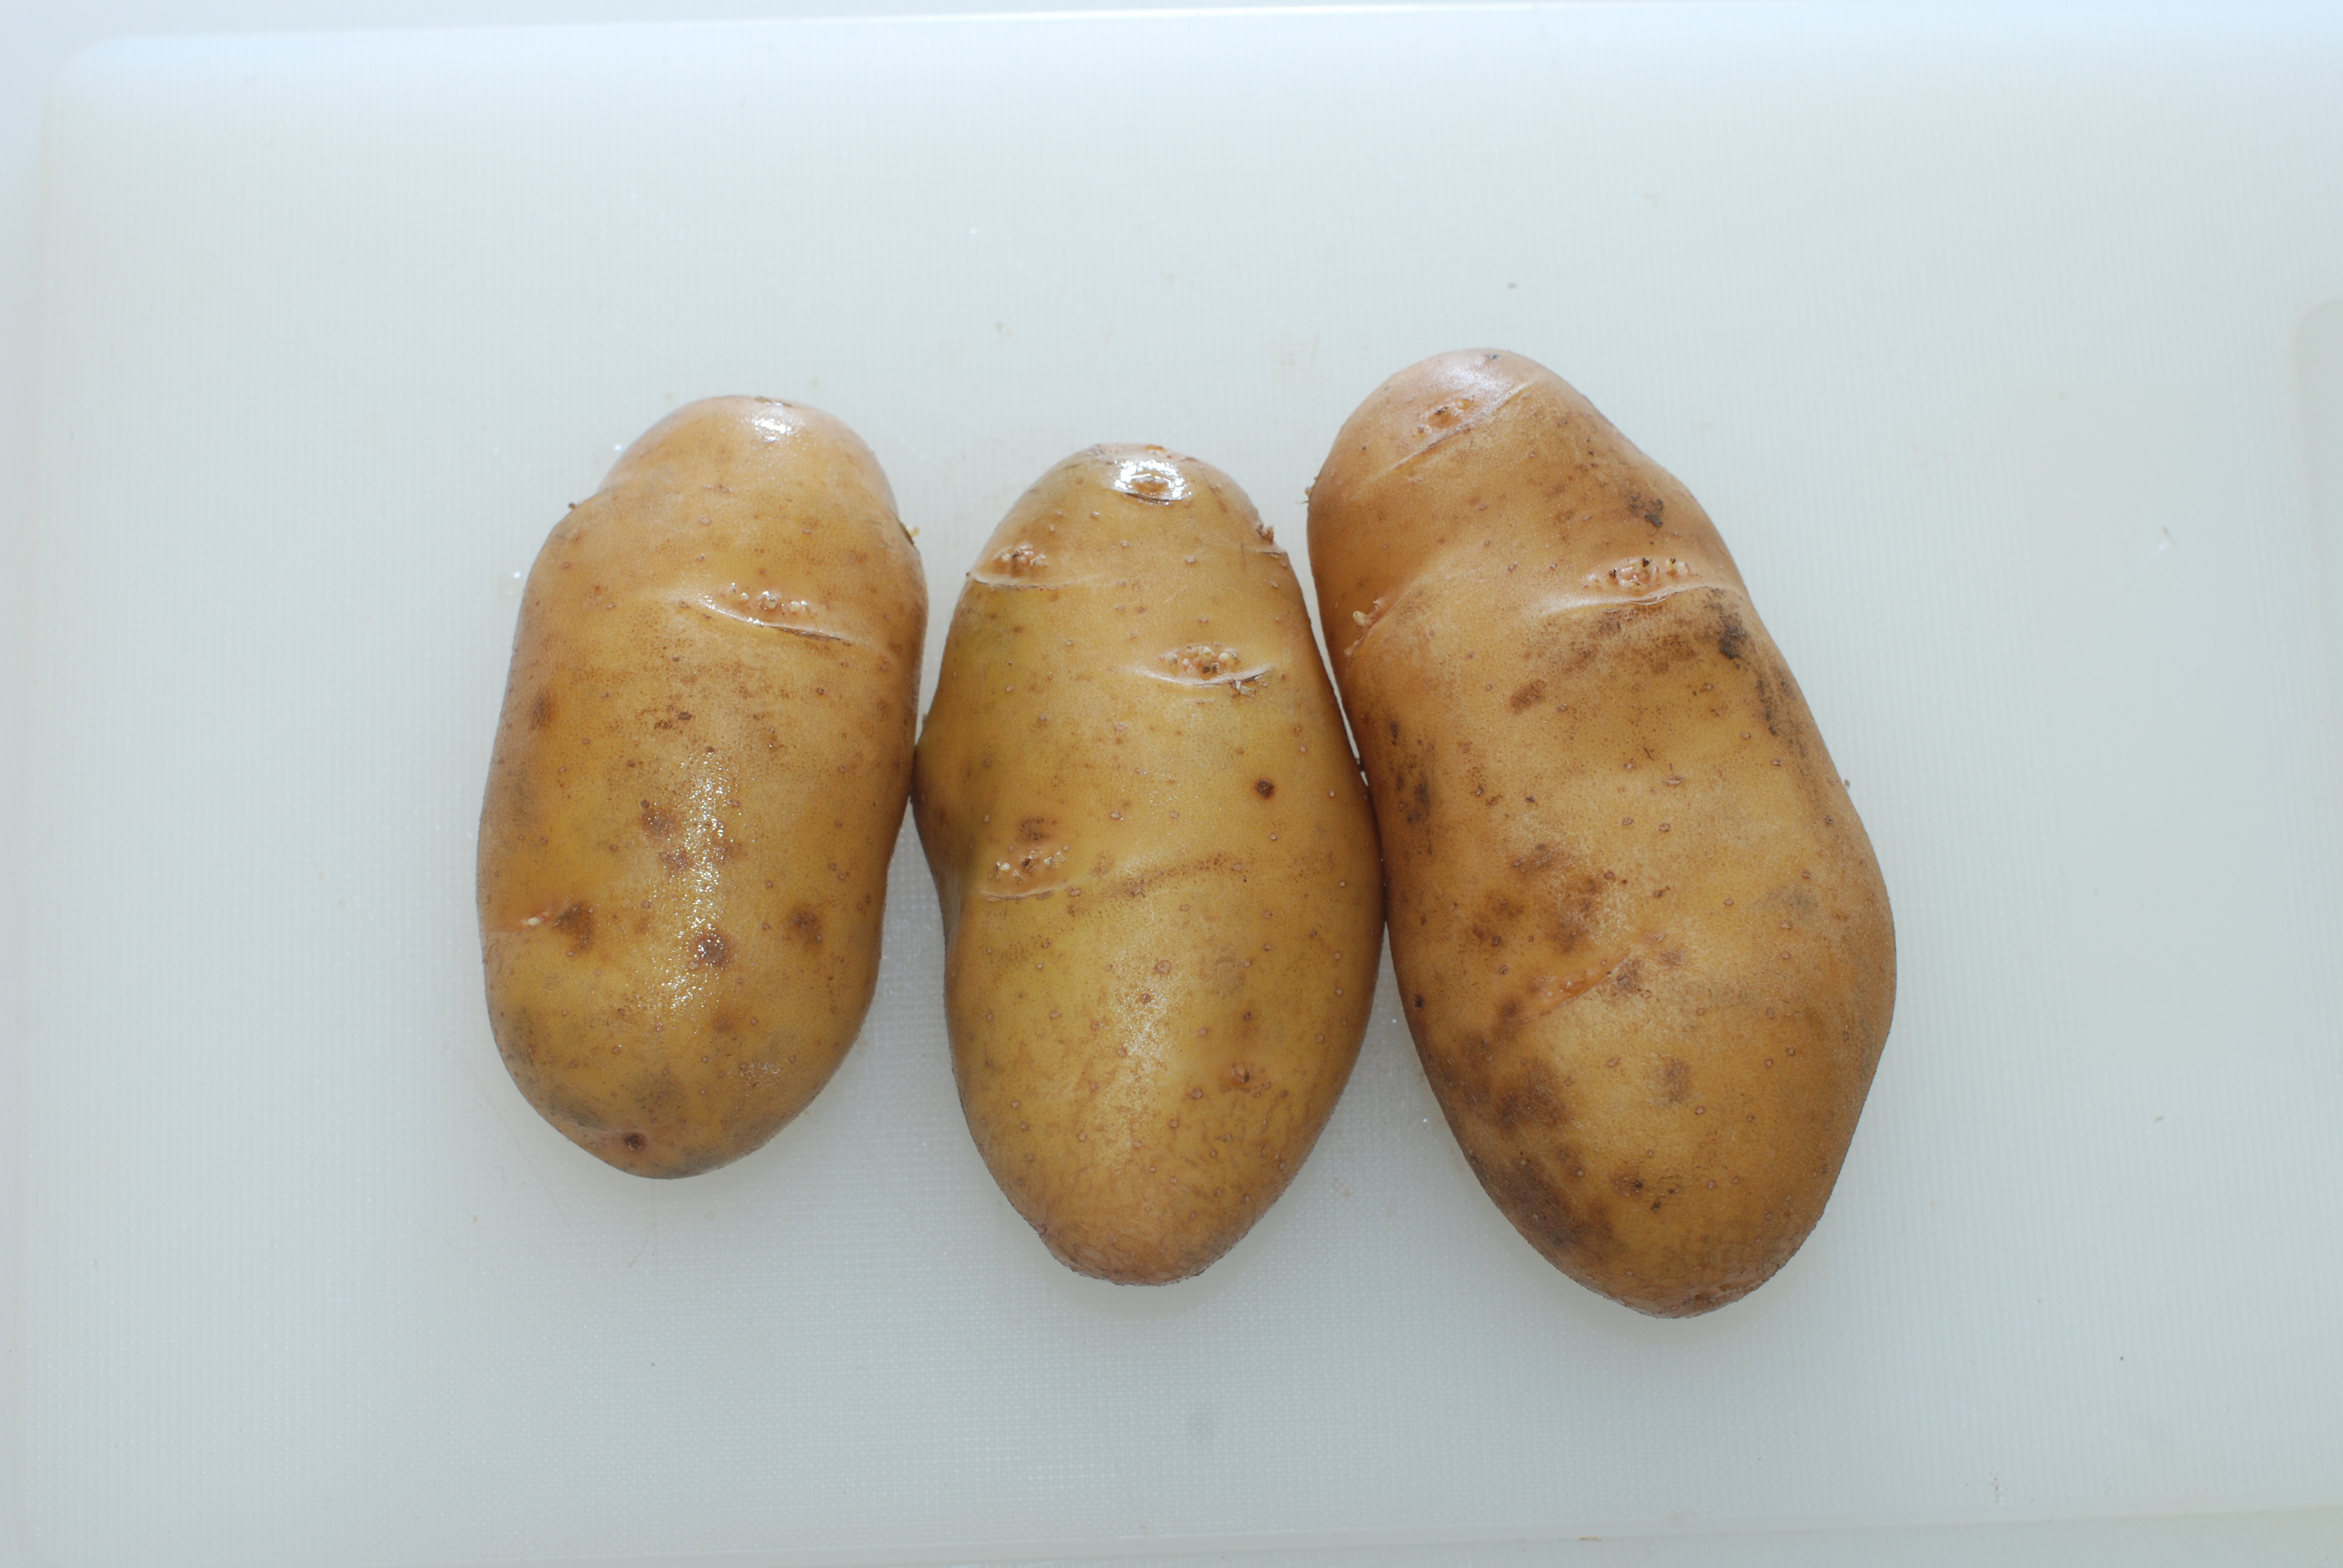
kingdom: Plantae
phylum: Tracheophyta
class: Magnoliopsida
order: Solanales
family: Solanaceae
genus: Solanum
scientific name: Solanum tuberosum
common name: Potato
